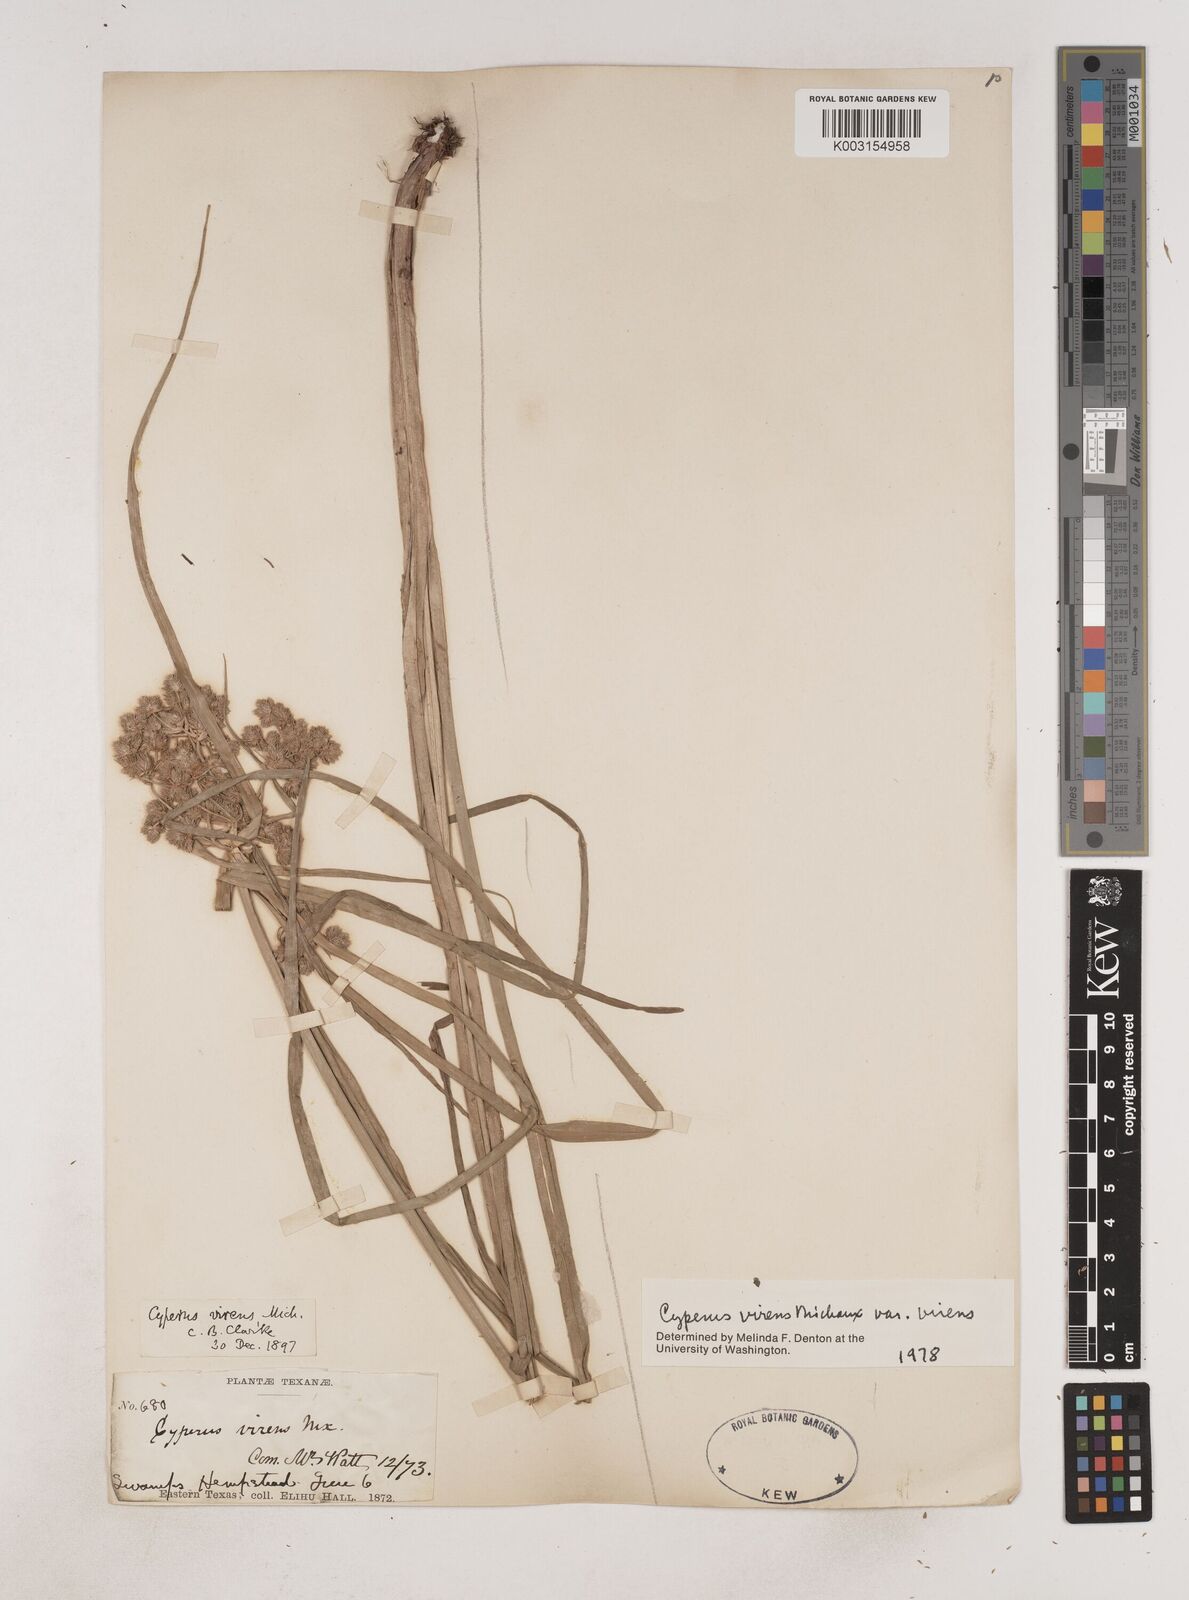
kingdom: Plantae
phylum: Tracheophyta
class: Liliopsida
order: Poales
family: Cyperaceae
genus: Cyperus
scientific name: Cyperus virens
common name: Green flatsedge
